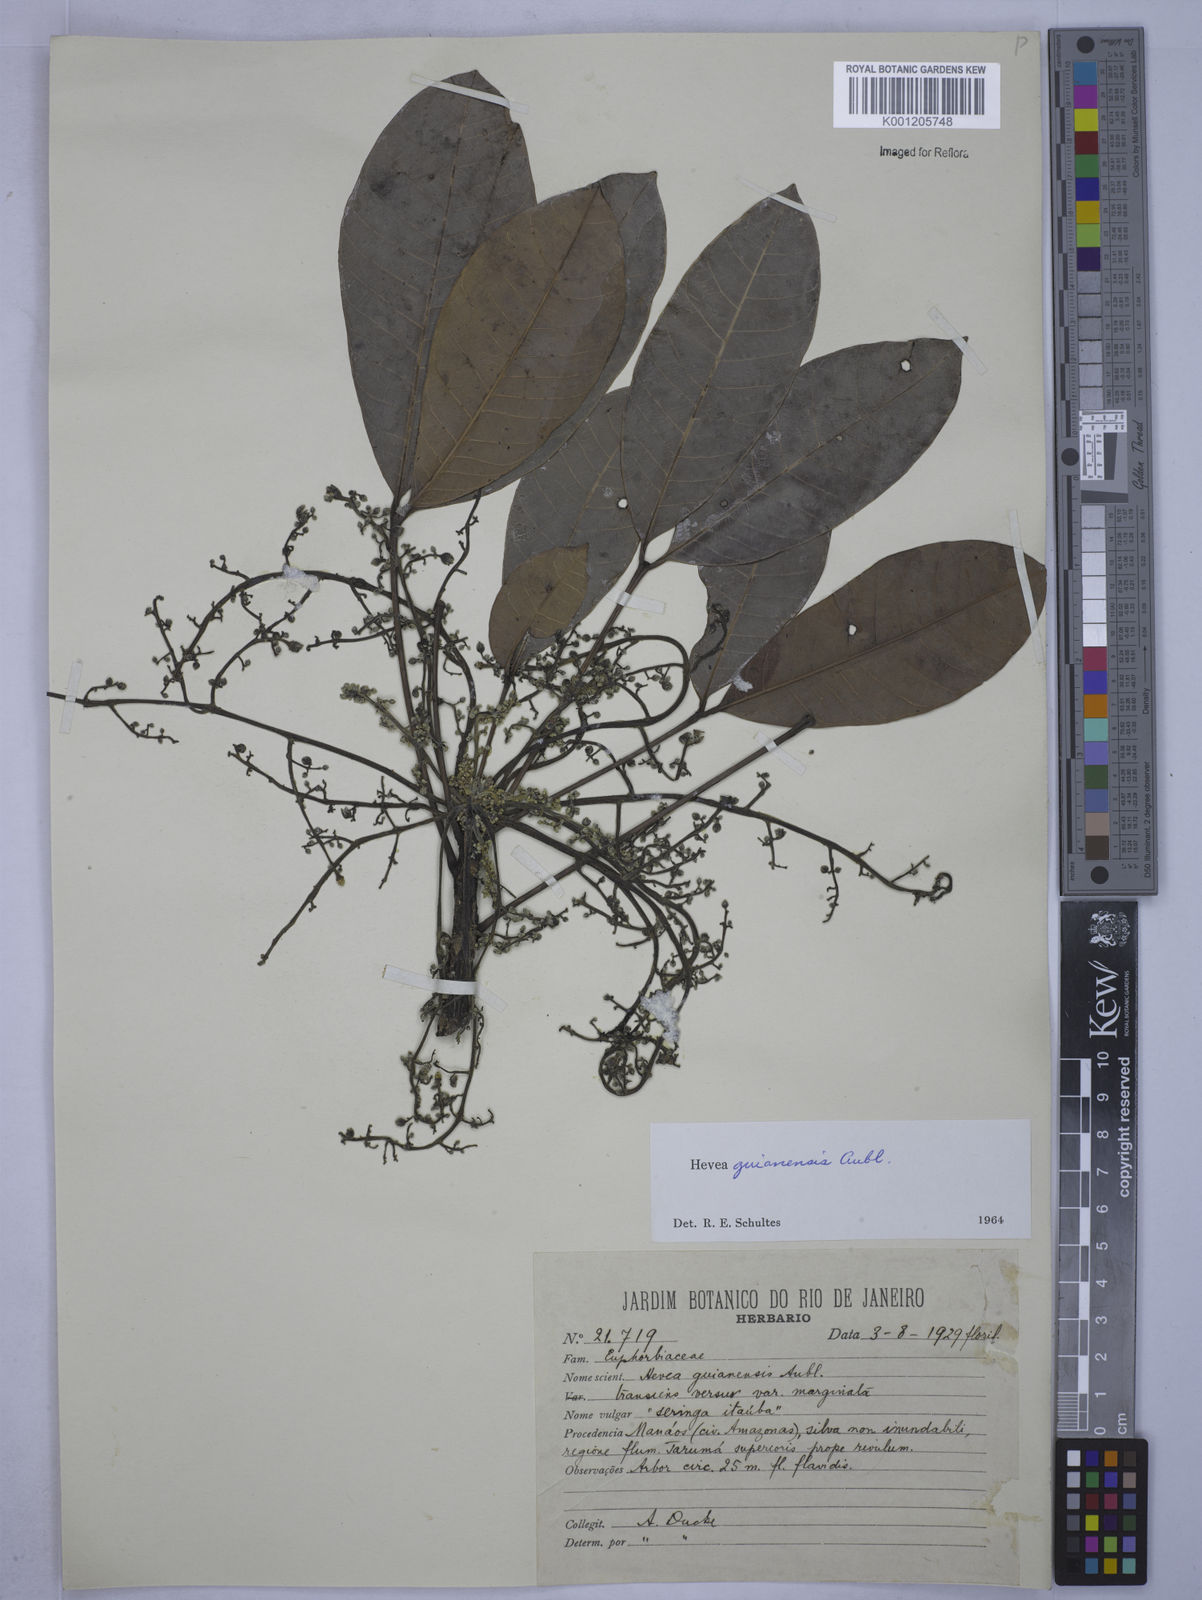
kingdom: Plantae
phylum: Tracheophyta
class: Magnoliopsida
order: Malpighiales
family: Euphorbiaceae
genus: Hevea
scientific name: Hevea guianensis
